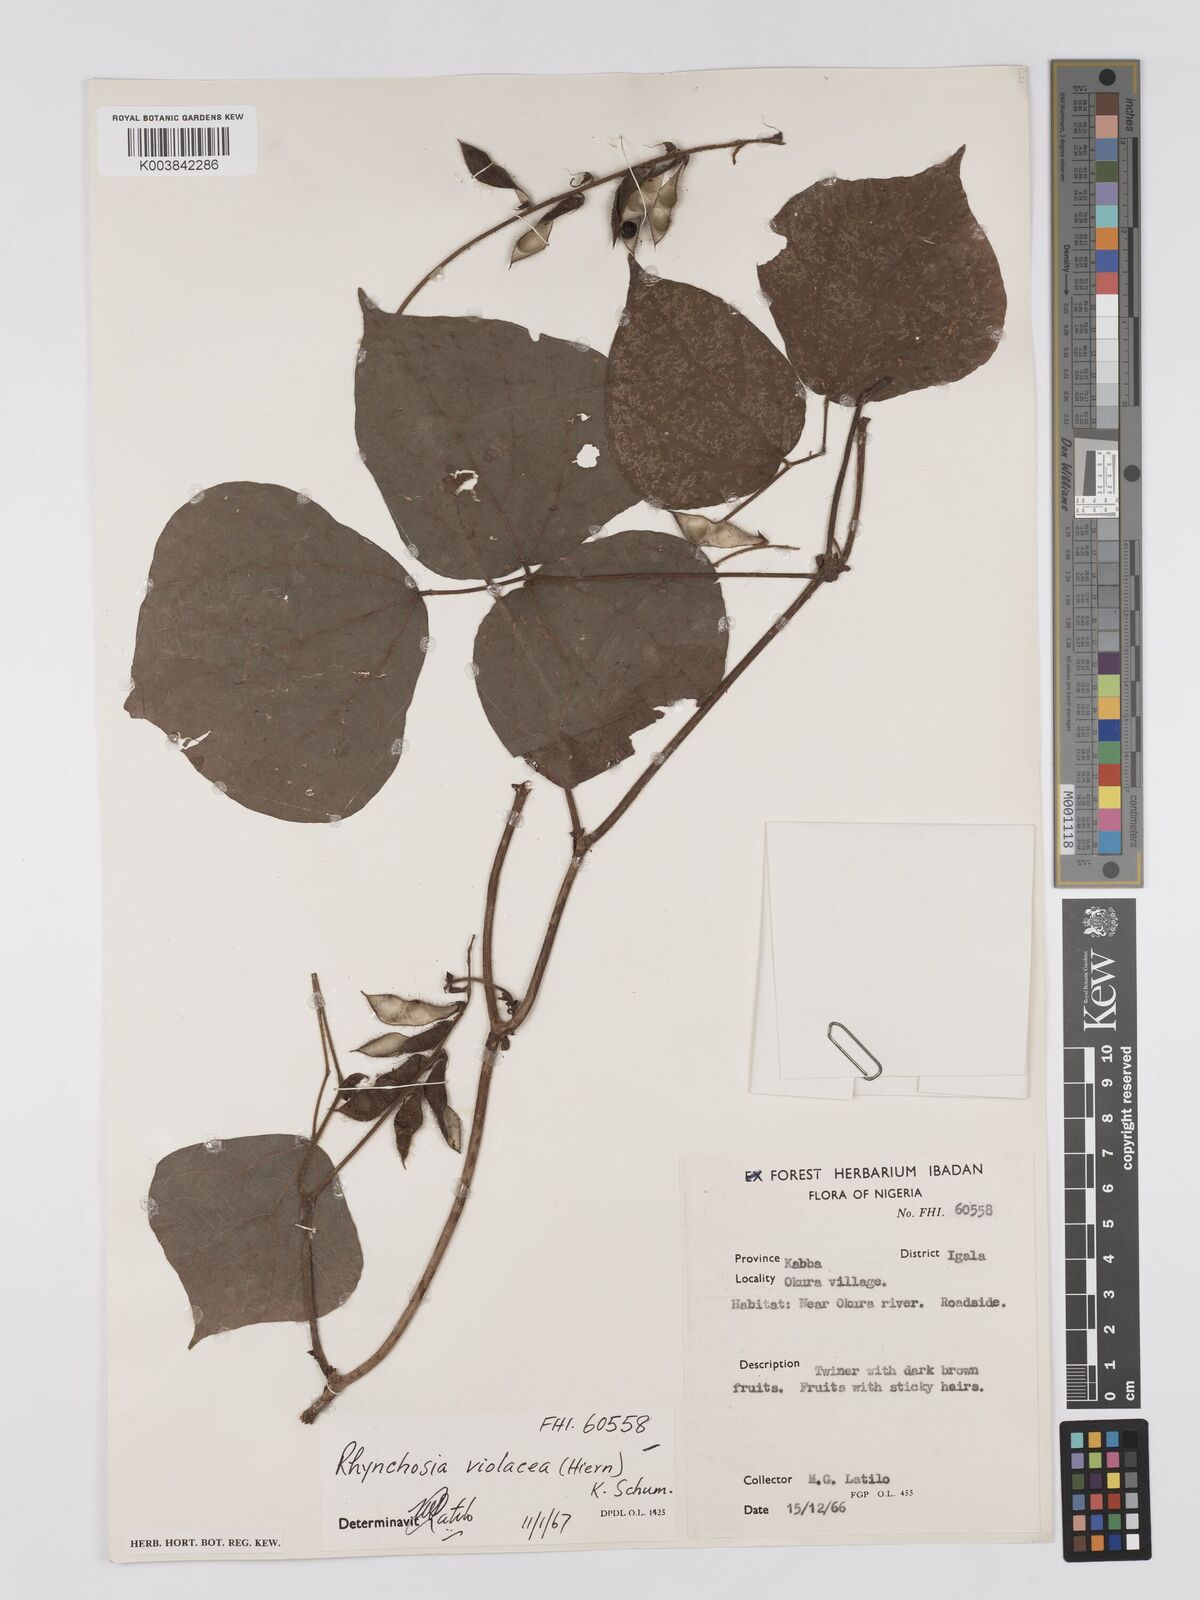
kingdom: Plantae
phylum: Tracheophyta
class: Magnoliopsida
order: Fabales
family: Fabaceae
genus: Rhynchosia
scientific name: Rhynchosia viscosa
